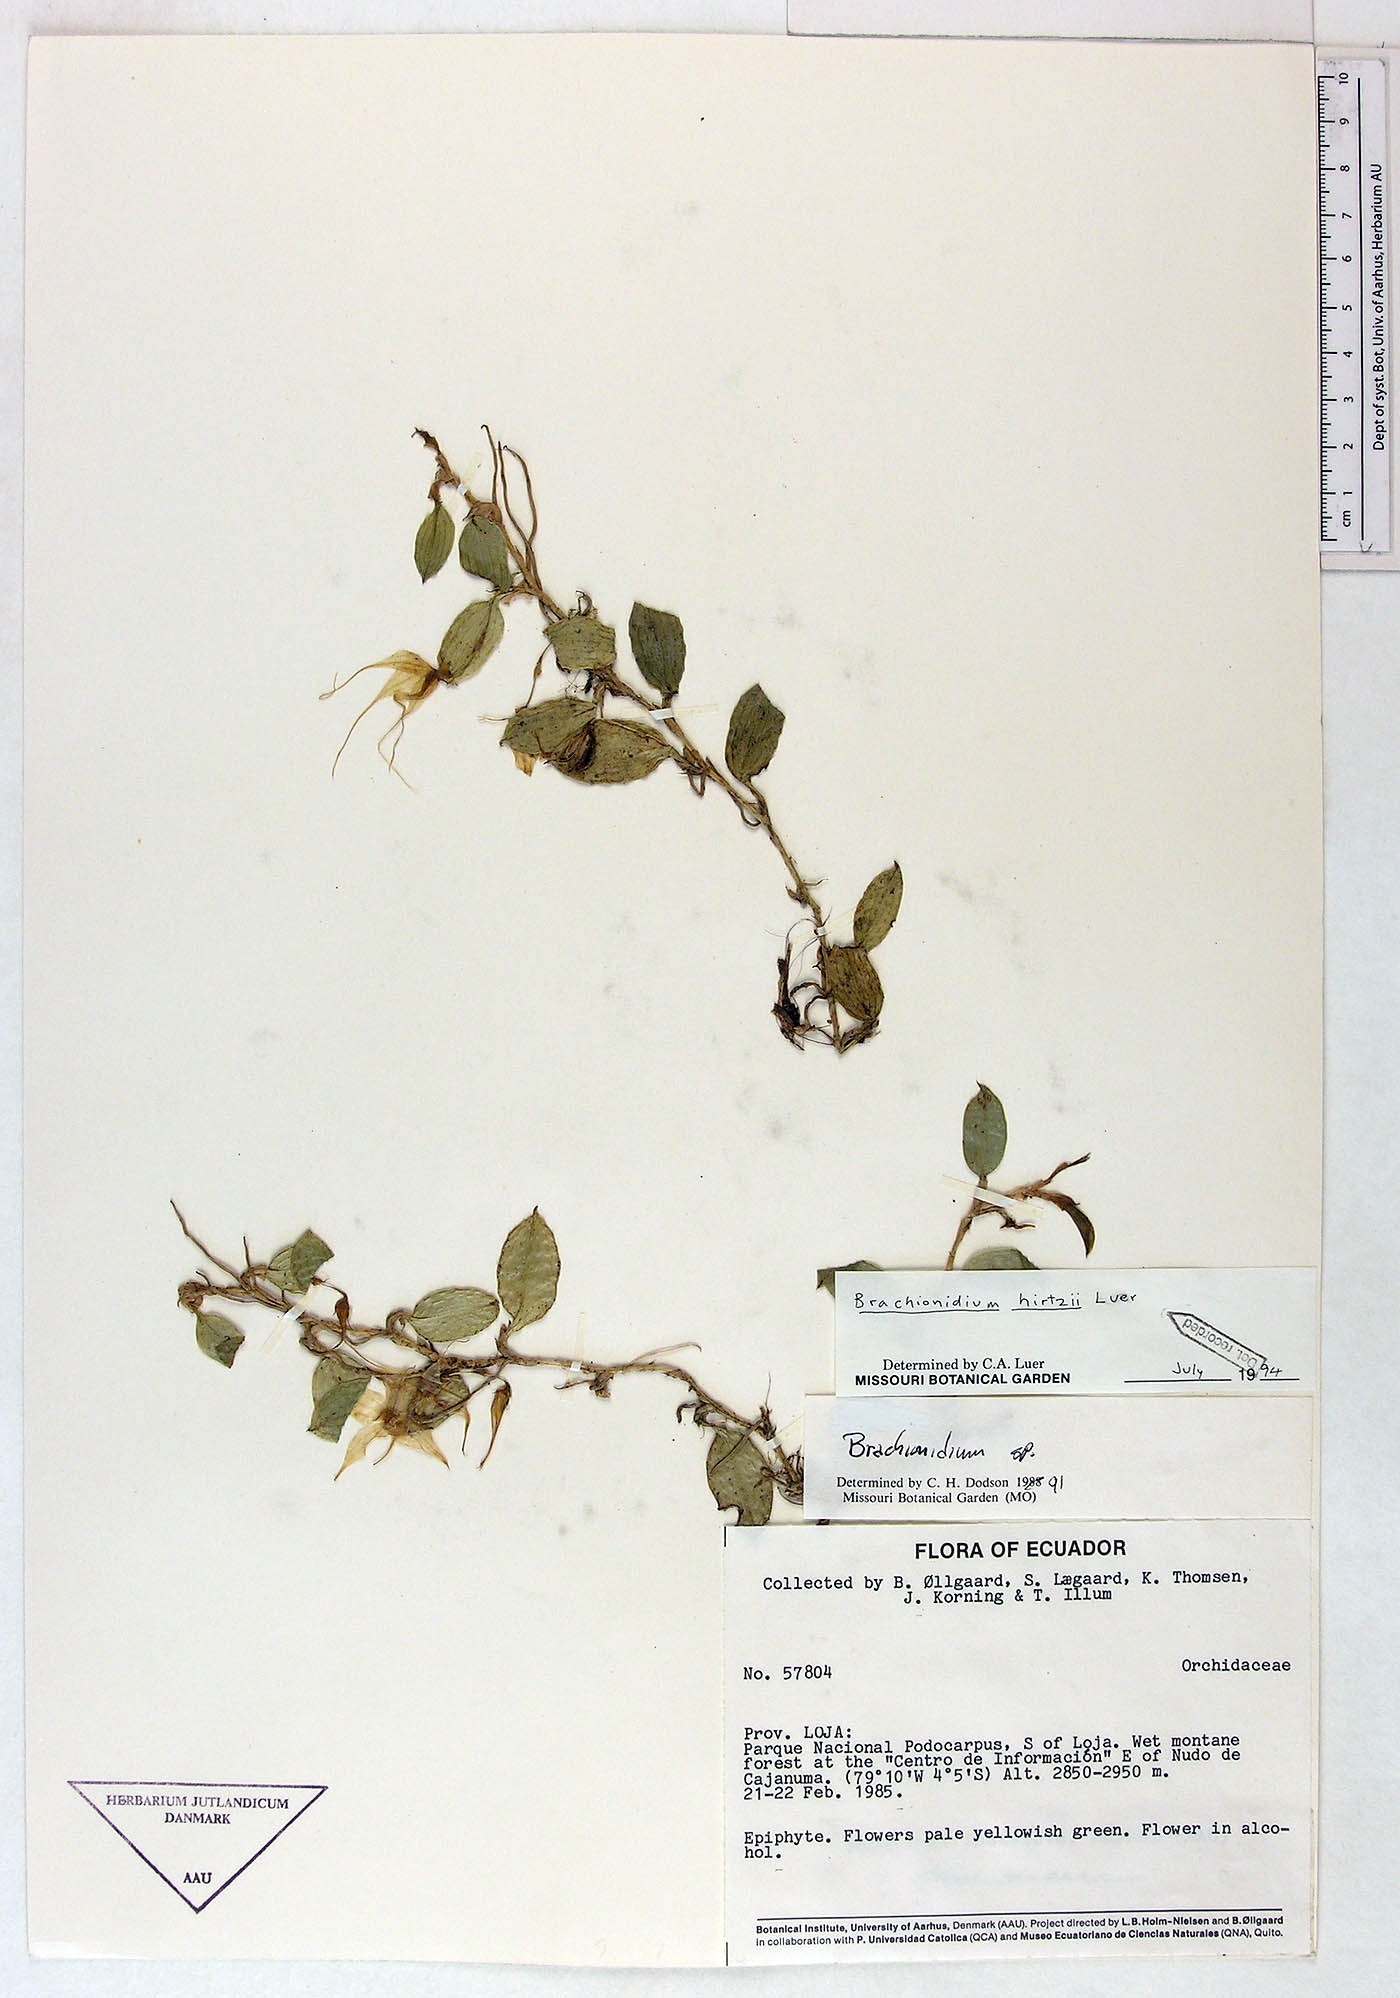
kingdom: Plantae
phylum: Tracheophyta
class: Liliopsida
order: Asparagales
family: Orchidaceae
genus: Brachionidium
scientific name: Brachionidium hirtzii
